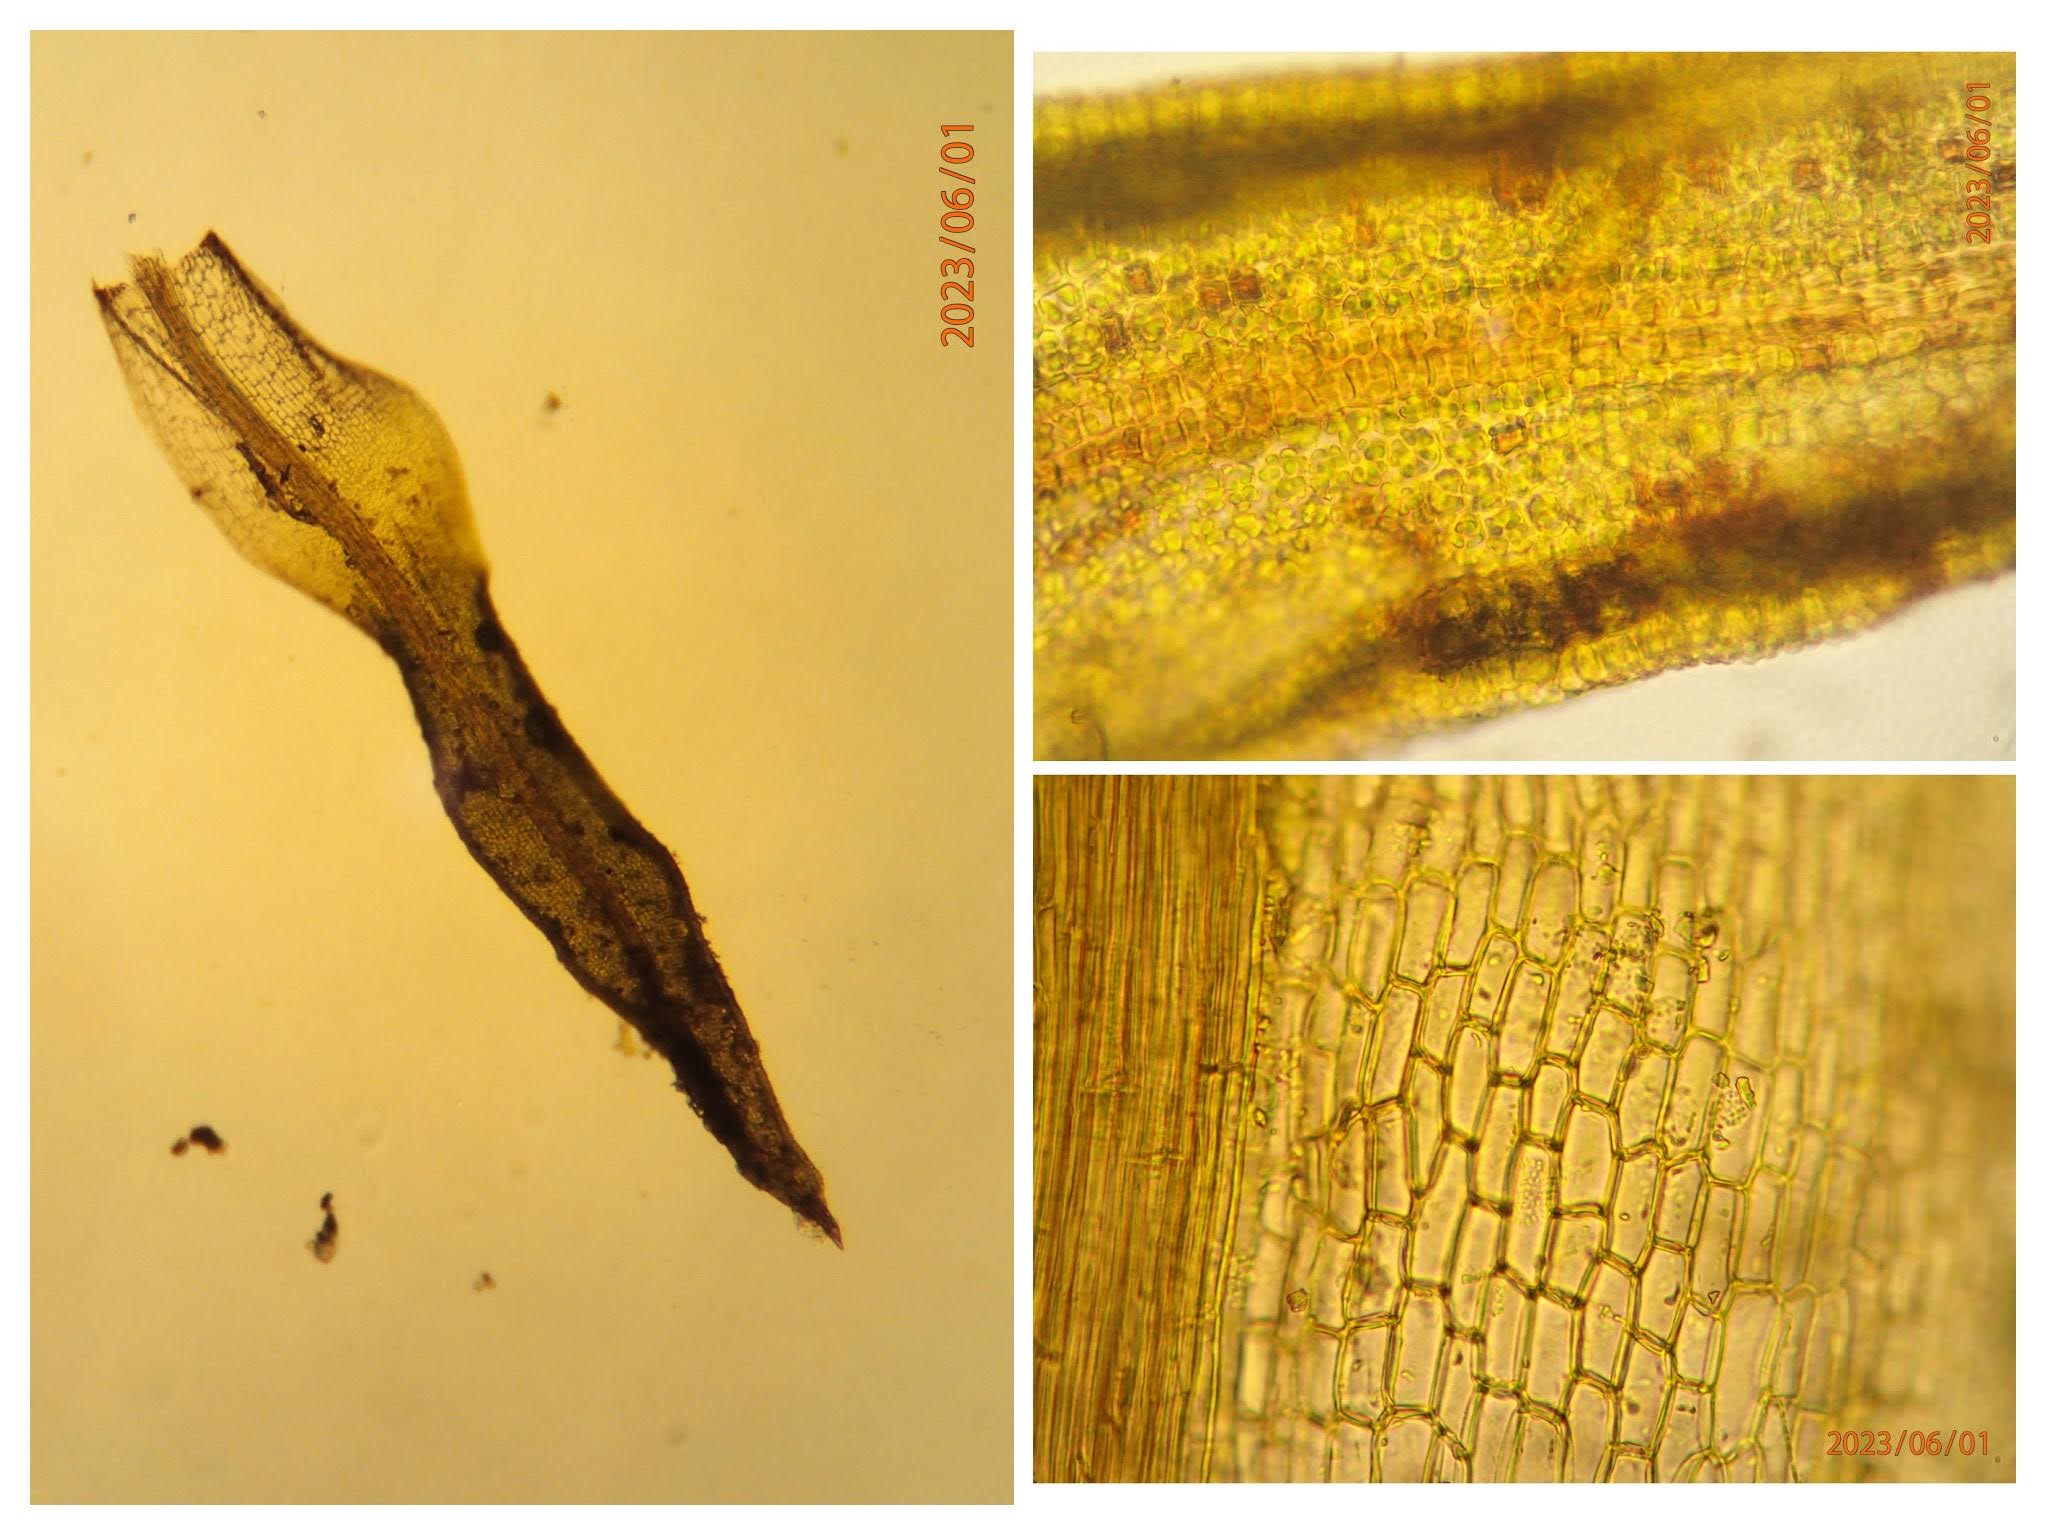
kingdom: Plantae
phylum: Bryophyta
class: Bryopsida
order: Pottiales
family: Pottiaceae
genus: Weissia
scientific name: Weissia controversa
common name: Smaltandet krusmos
